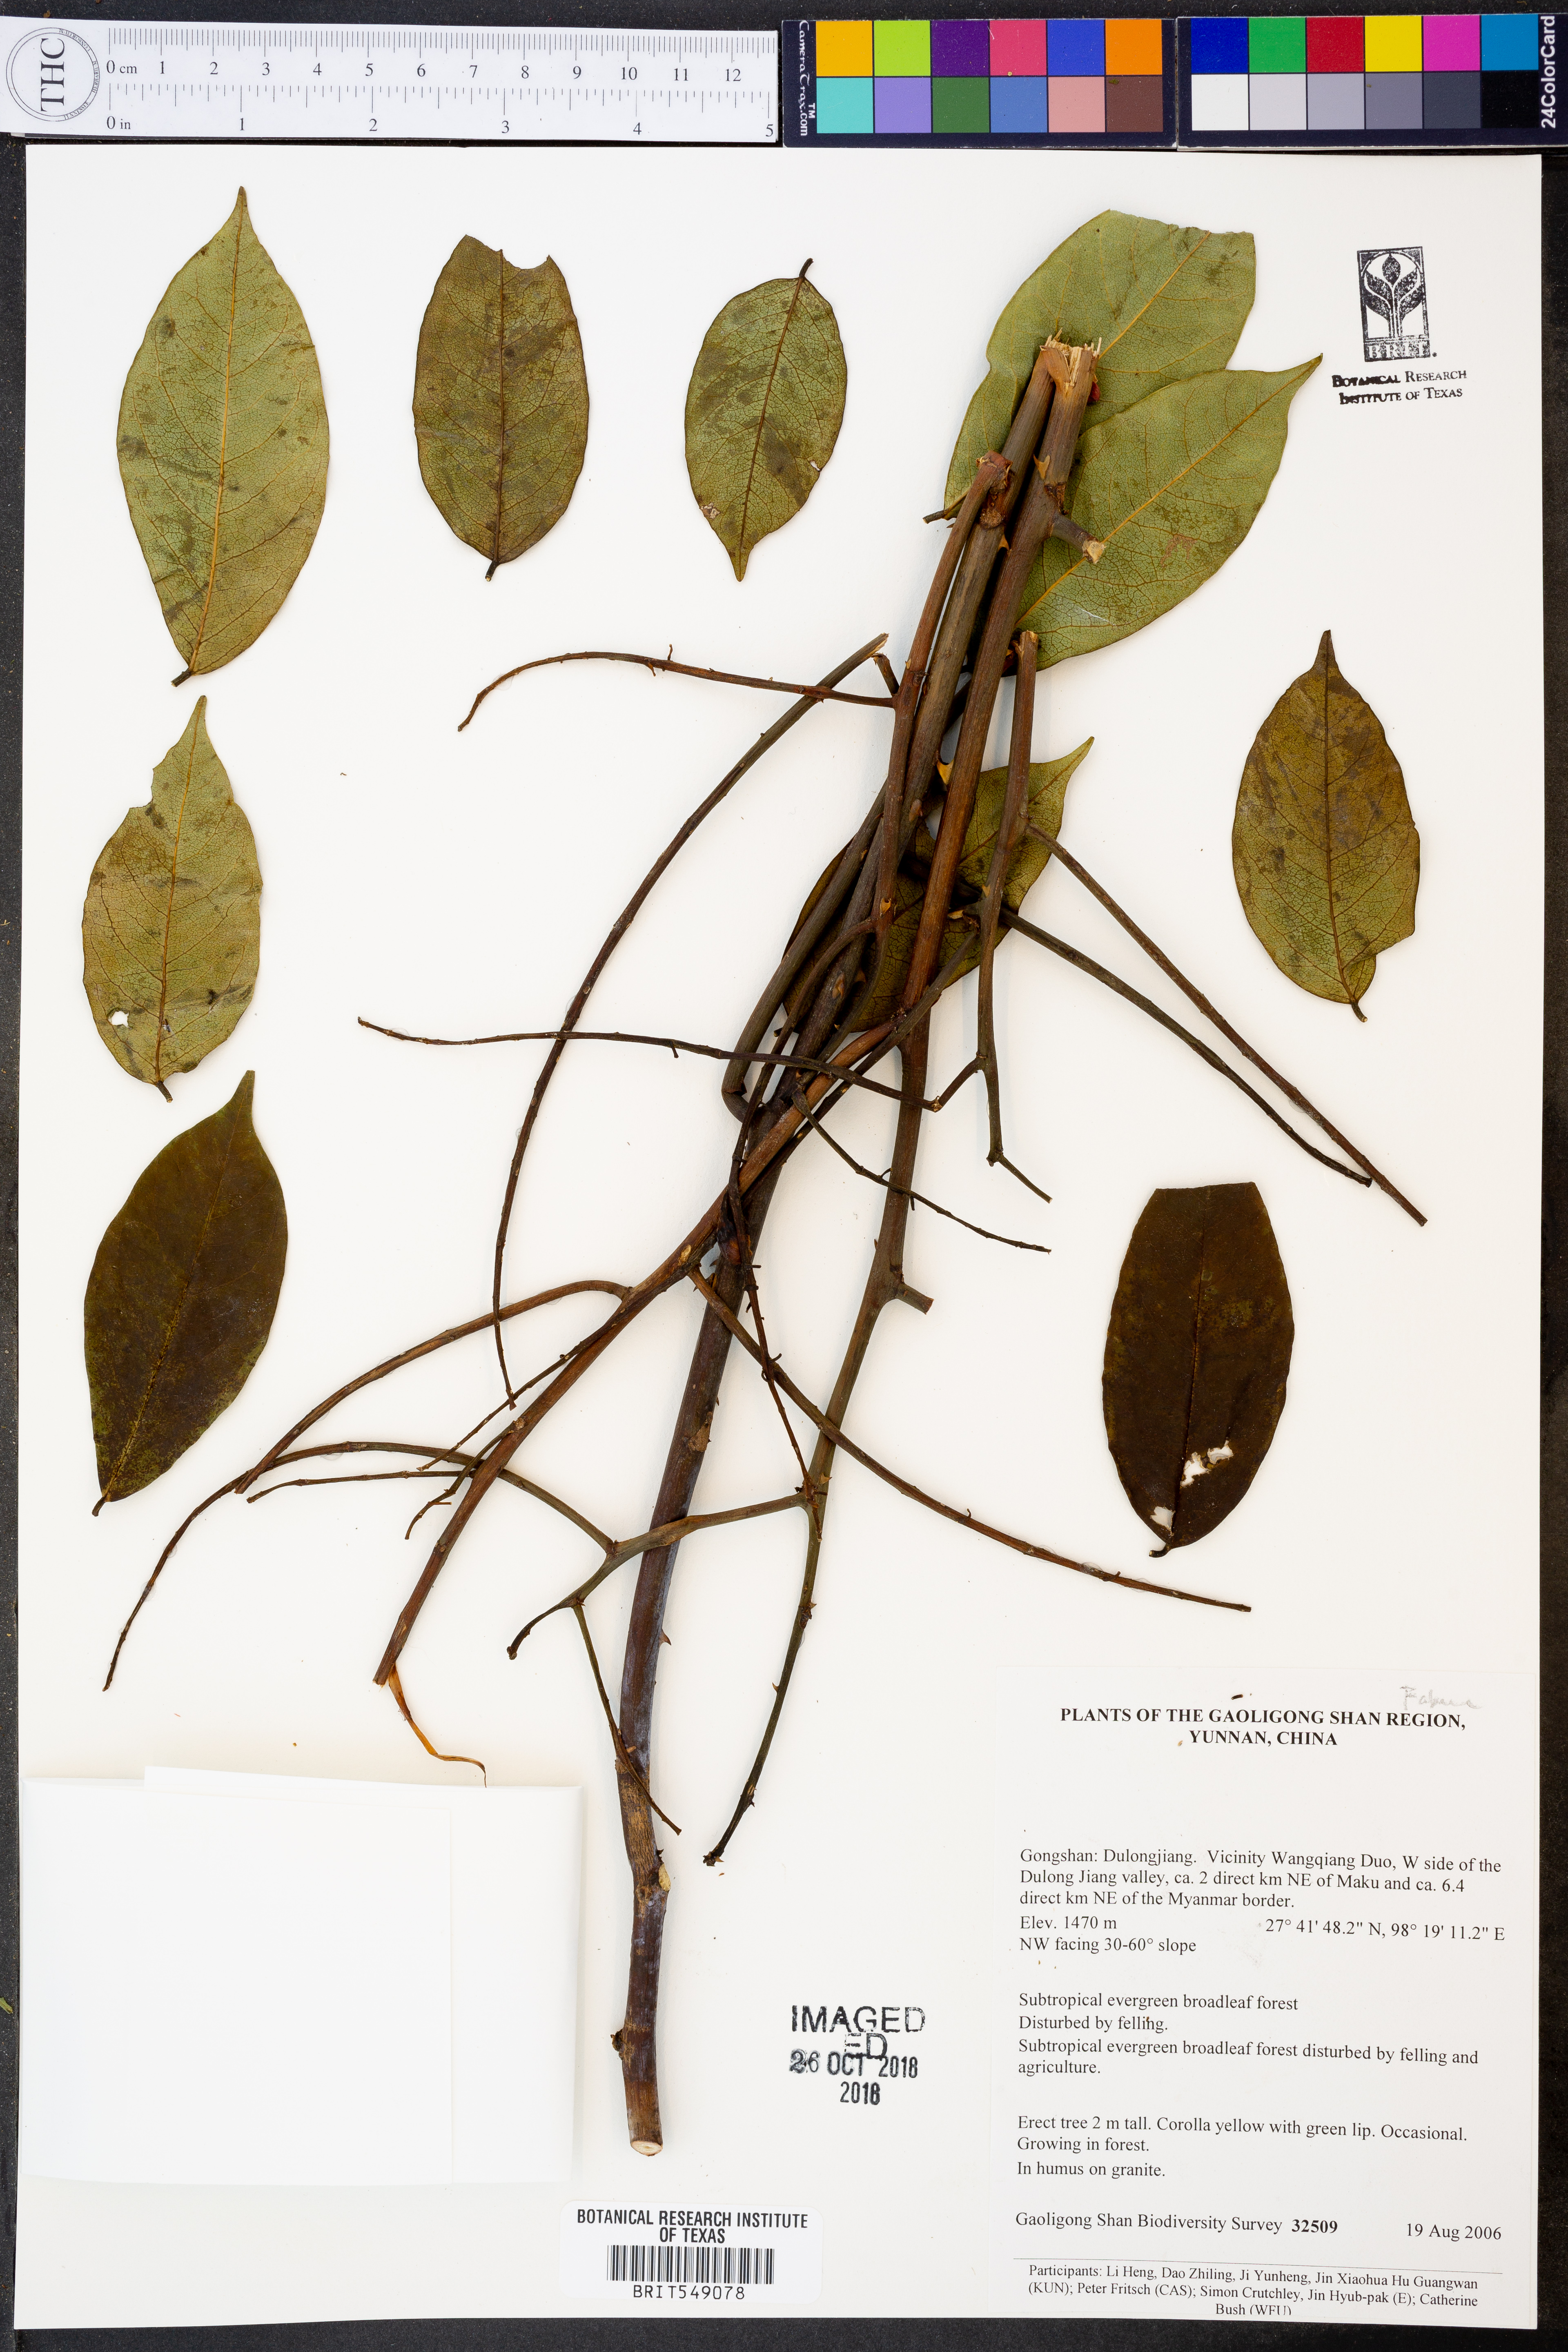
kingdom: Plantae
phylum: Tracheophyta
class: Magnoliopsida
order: Fabales
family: Fabaceae
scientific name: Fabaceae
